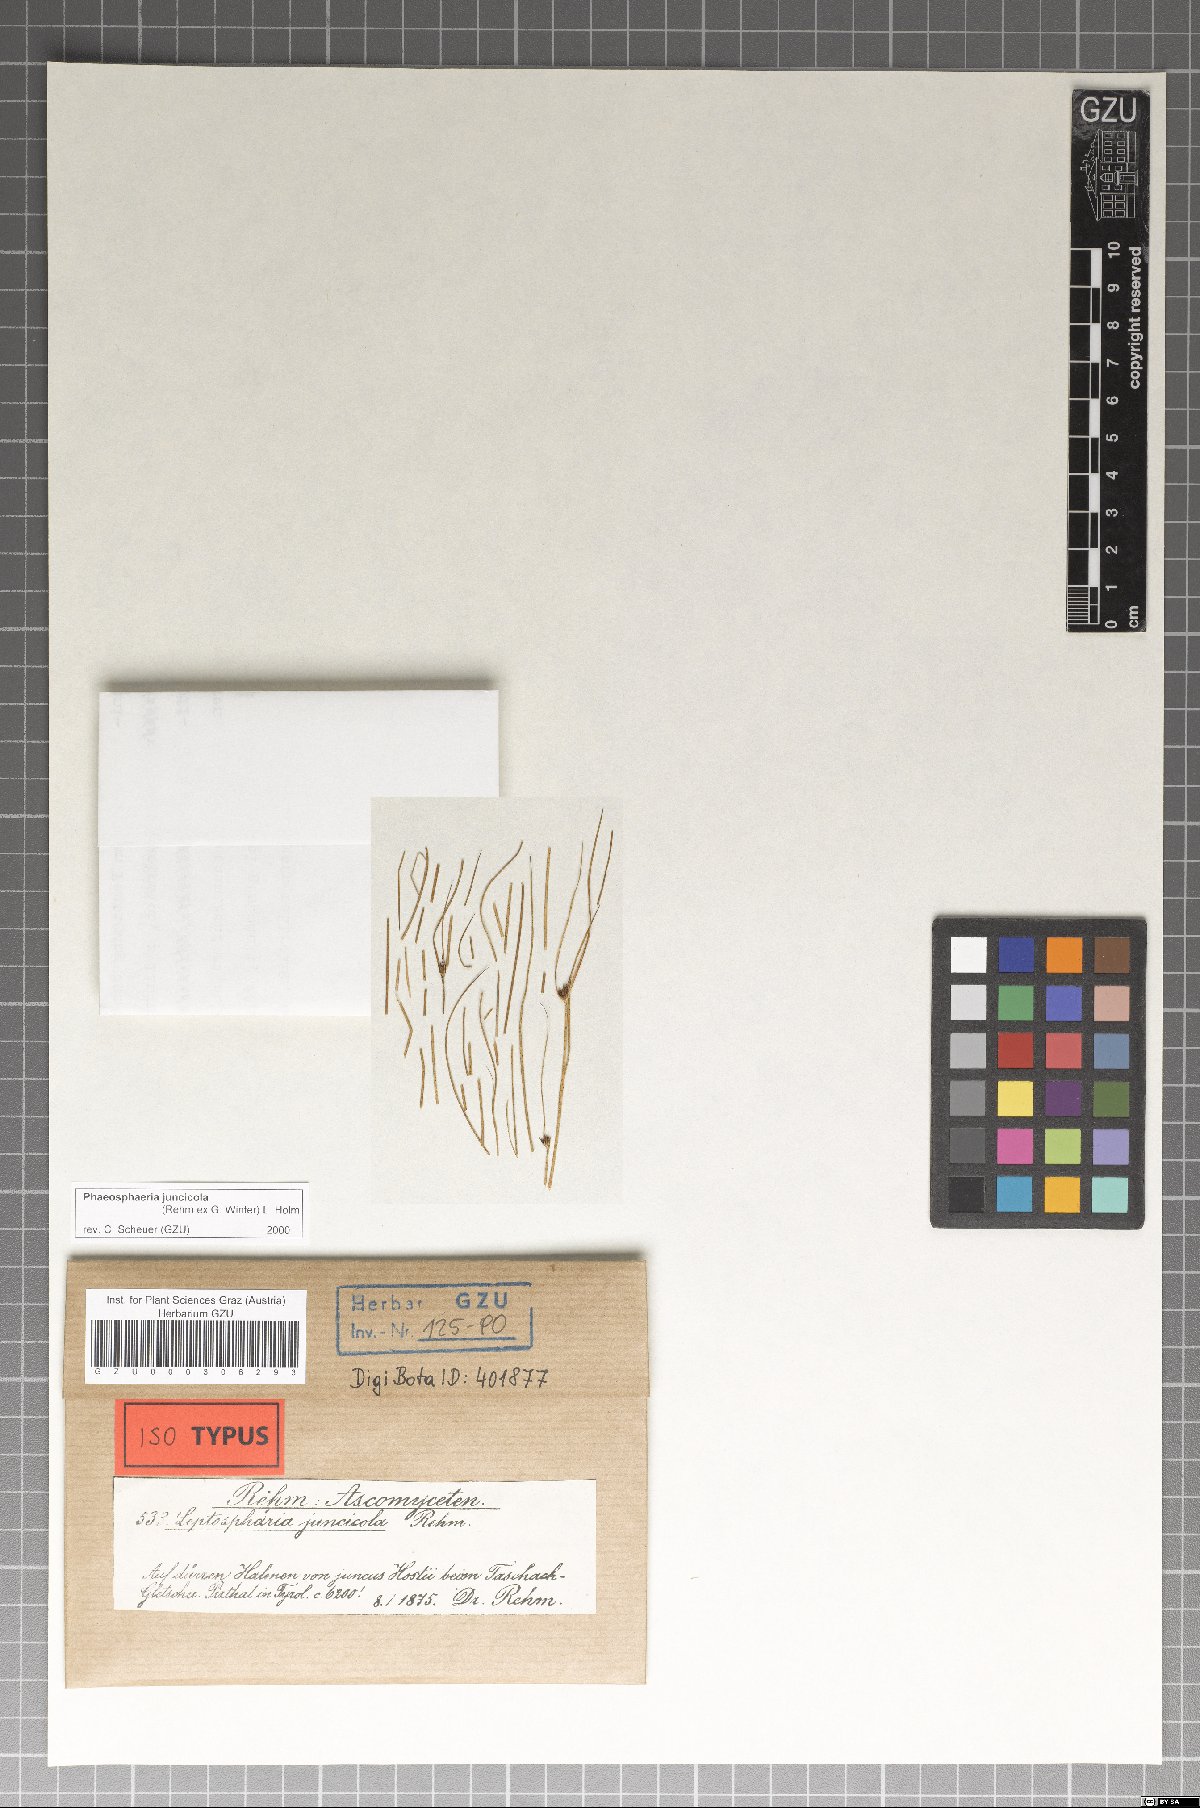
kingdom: Fungi
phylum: Ascomycota
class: Dothideomycetes
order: Pleosporales
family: Phaeosphaeriaceae
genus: Phaeosphaeria
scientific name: Phaeosphaeria juncicola
